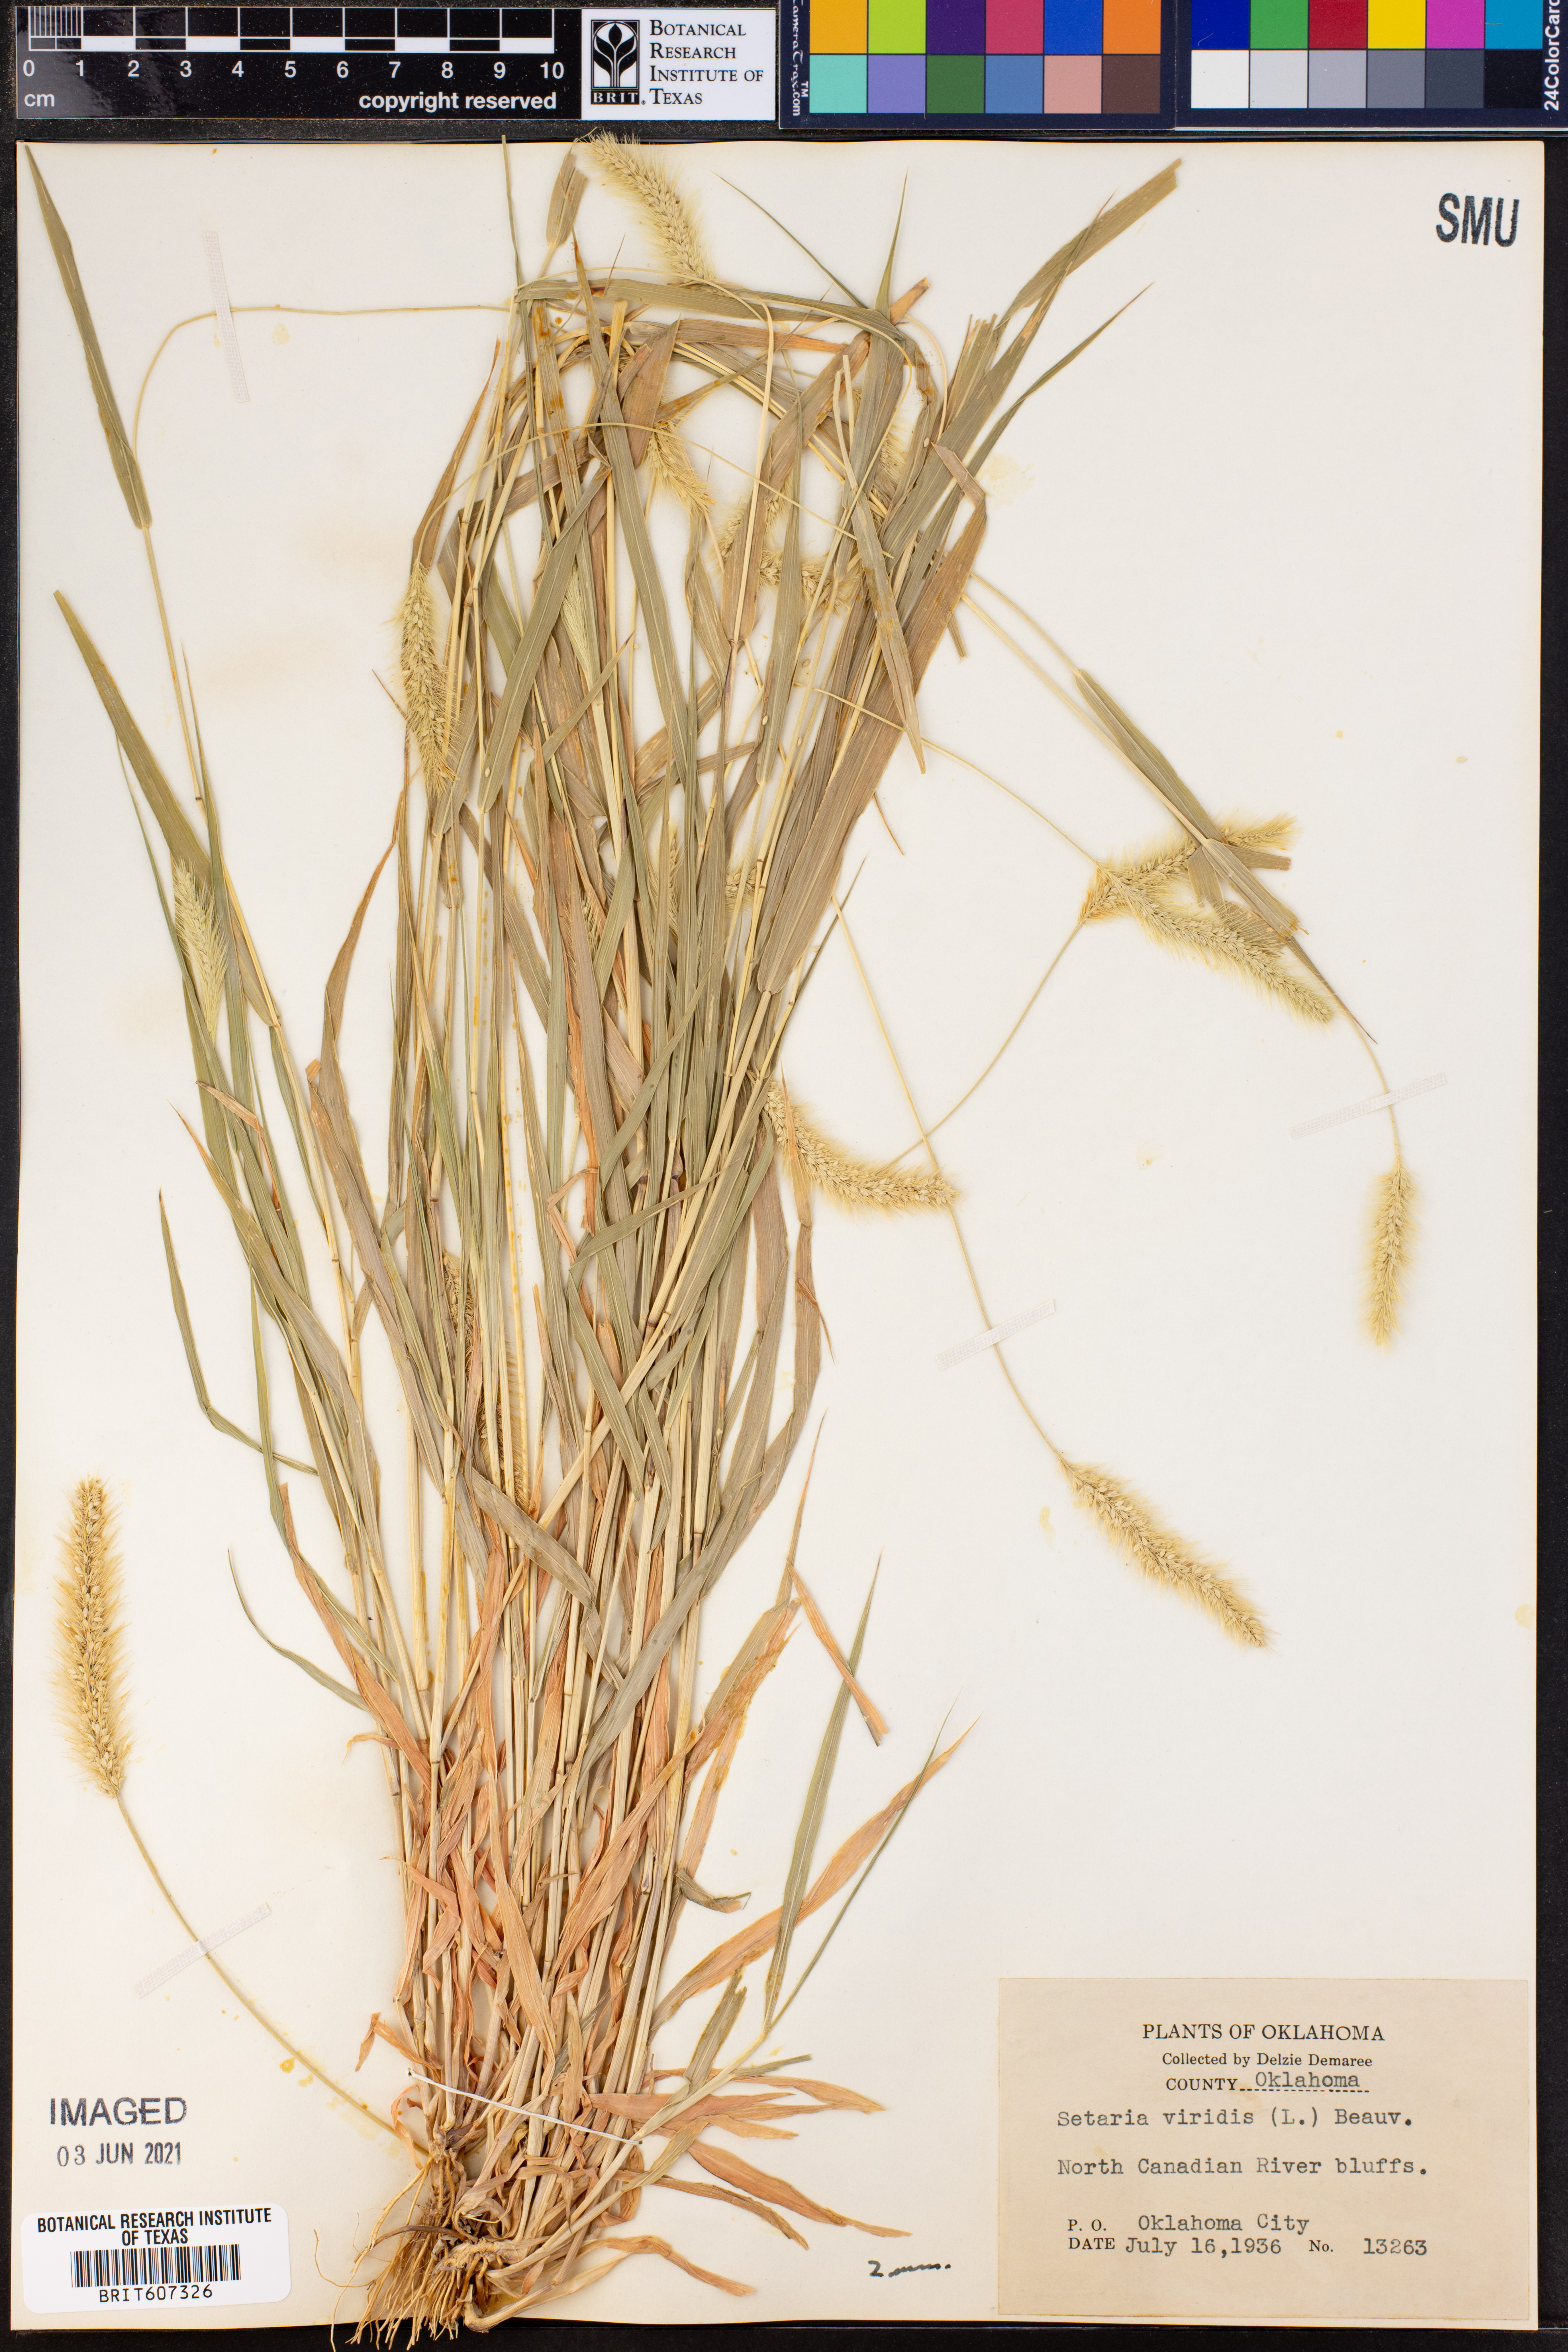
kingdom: Plantae
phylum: Tracheophyta
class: Liliopsida
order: Poales
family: Poaceae
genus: Setaria
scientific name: Setaria viridis
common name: Green bristlegrass
